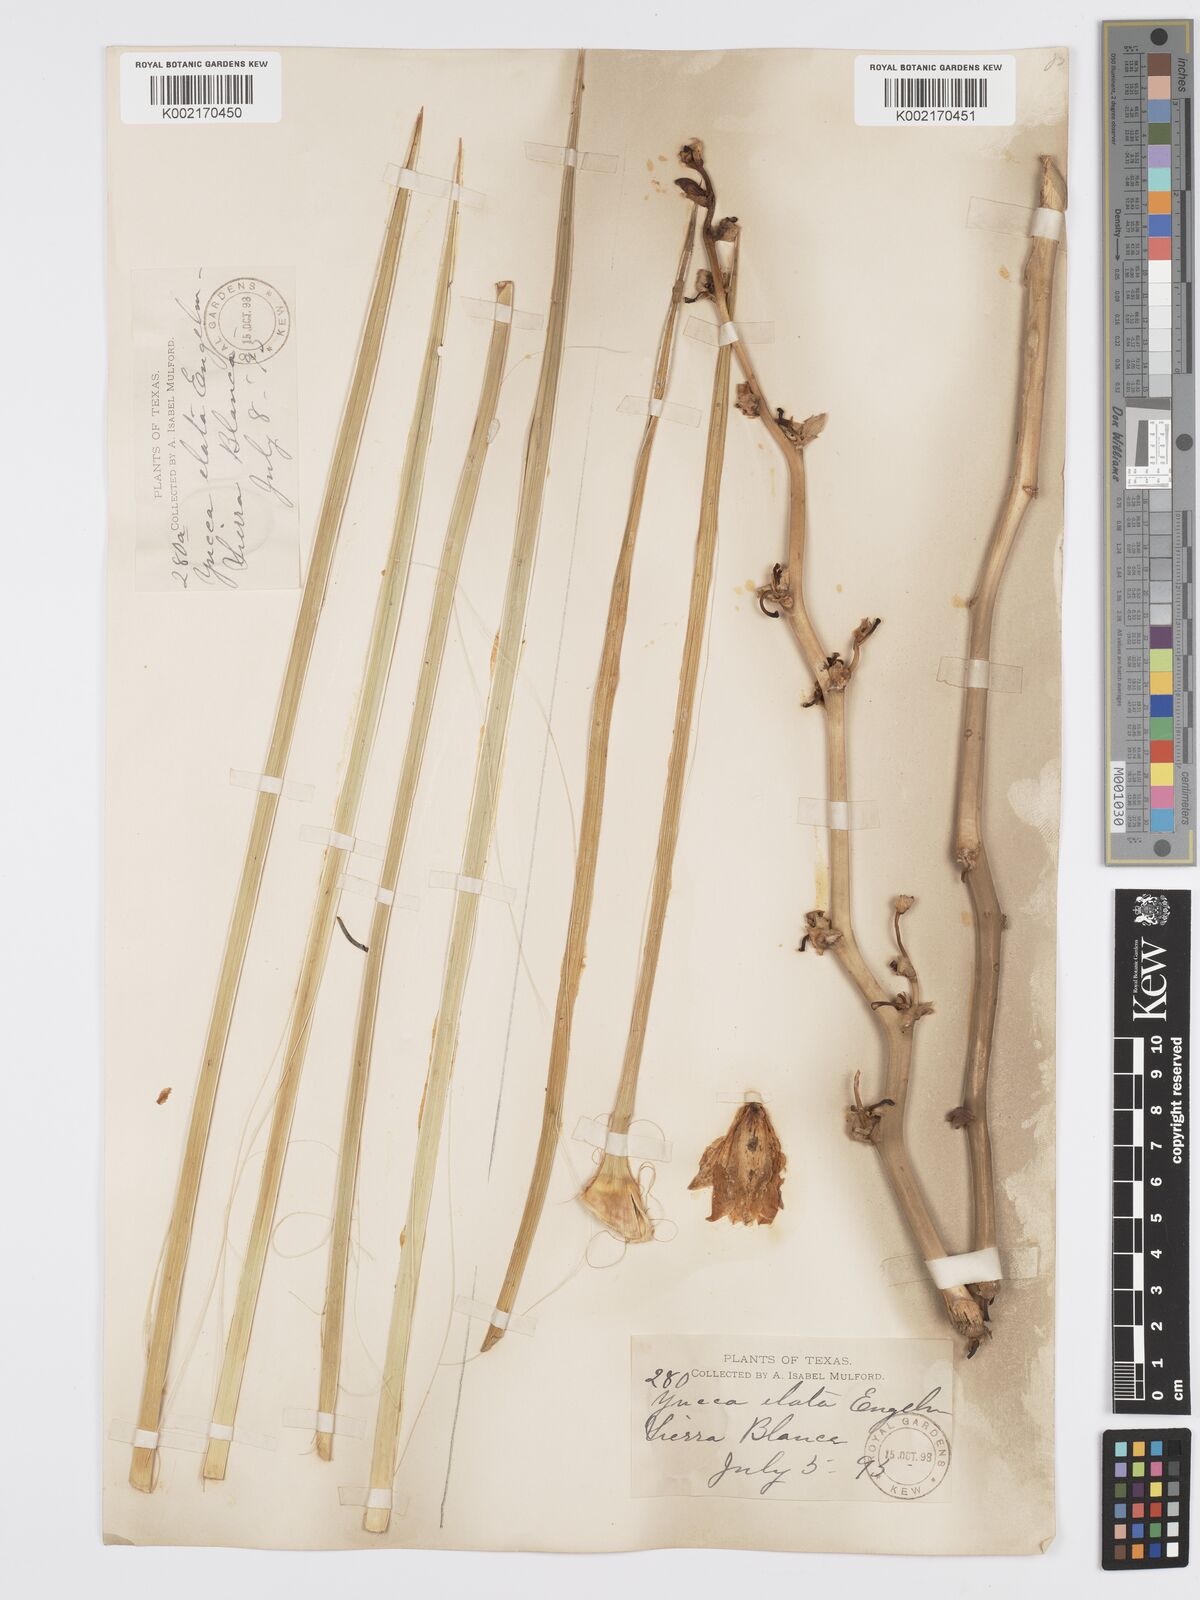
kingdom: Plantae
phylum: Tracheophyta
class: Liliopsida
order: Asparagales
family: Asparagaceae
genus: Yucca
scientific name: Yucca elata
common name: Palmella
